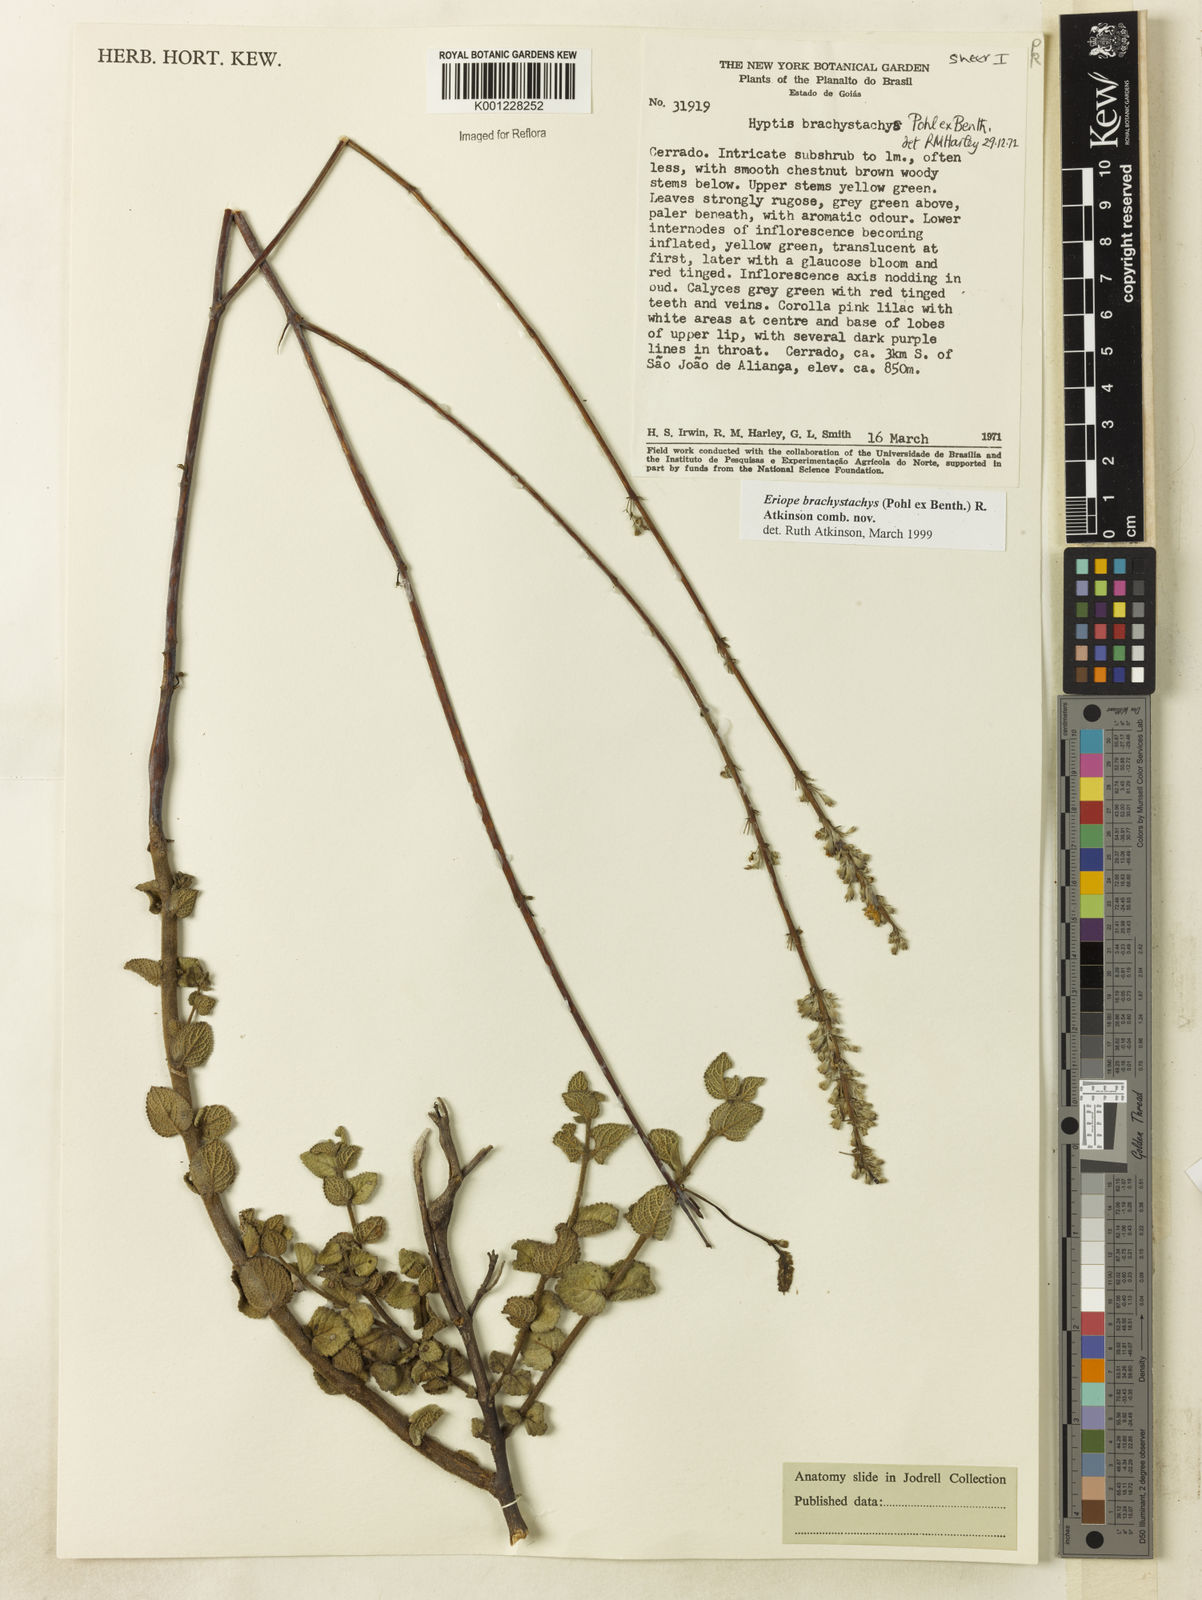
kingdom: Plantae
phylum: Tracheophyta
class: Magnoliopsida
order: Lamiales
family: Lamiaceae
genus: Hypenia
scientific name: Hypenia brachystachys
